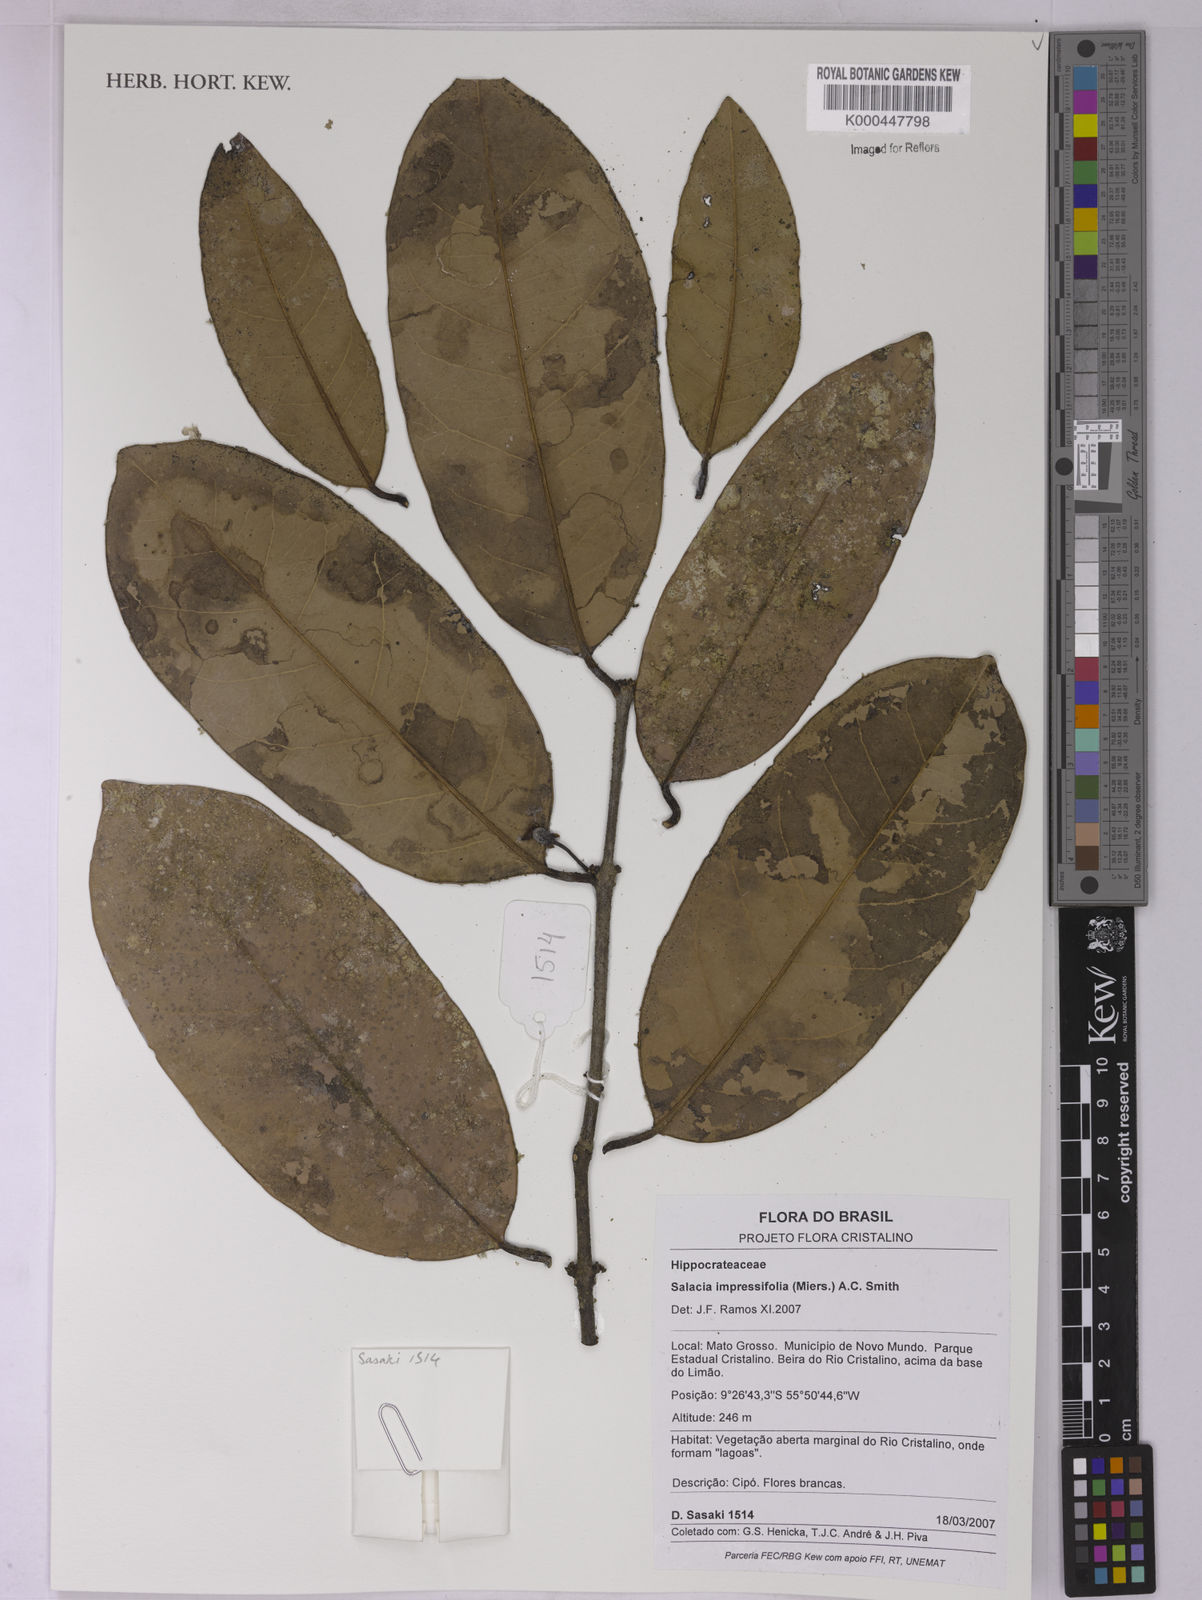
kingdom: Plantae
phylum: Tracheophyta
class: Magnoliopsida
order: Celastrales
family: Celastraceae
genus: Salacia
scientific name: Salacia impressifolia
